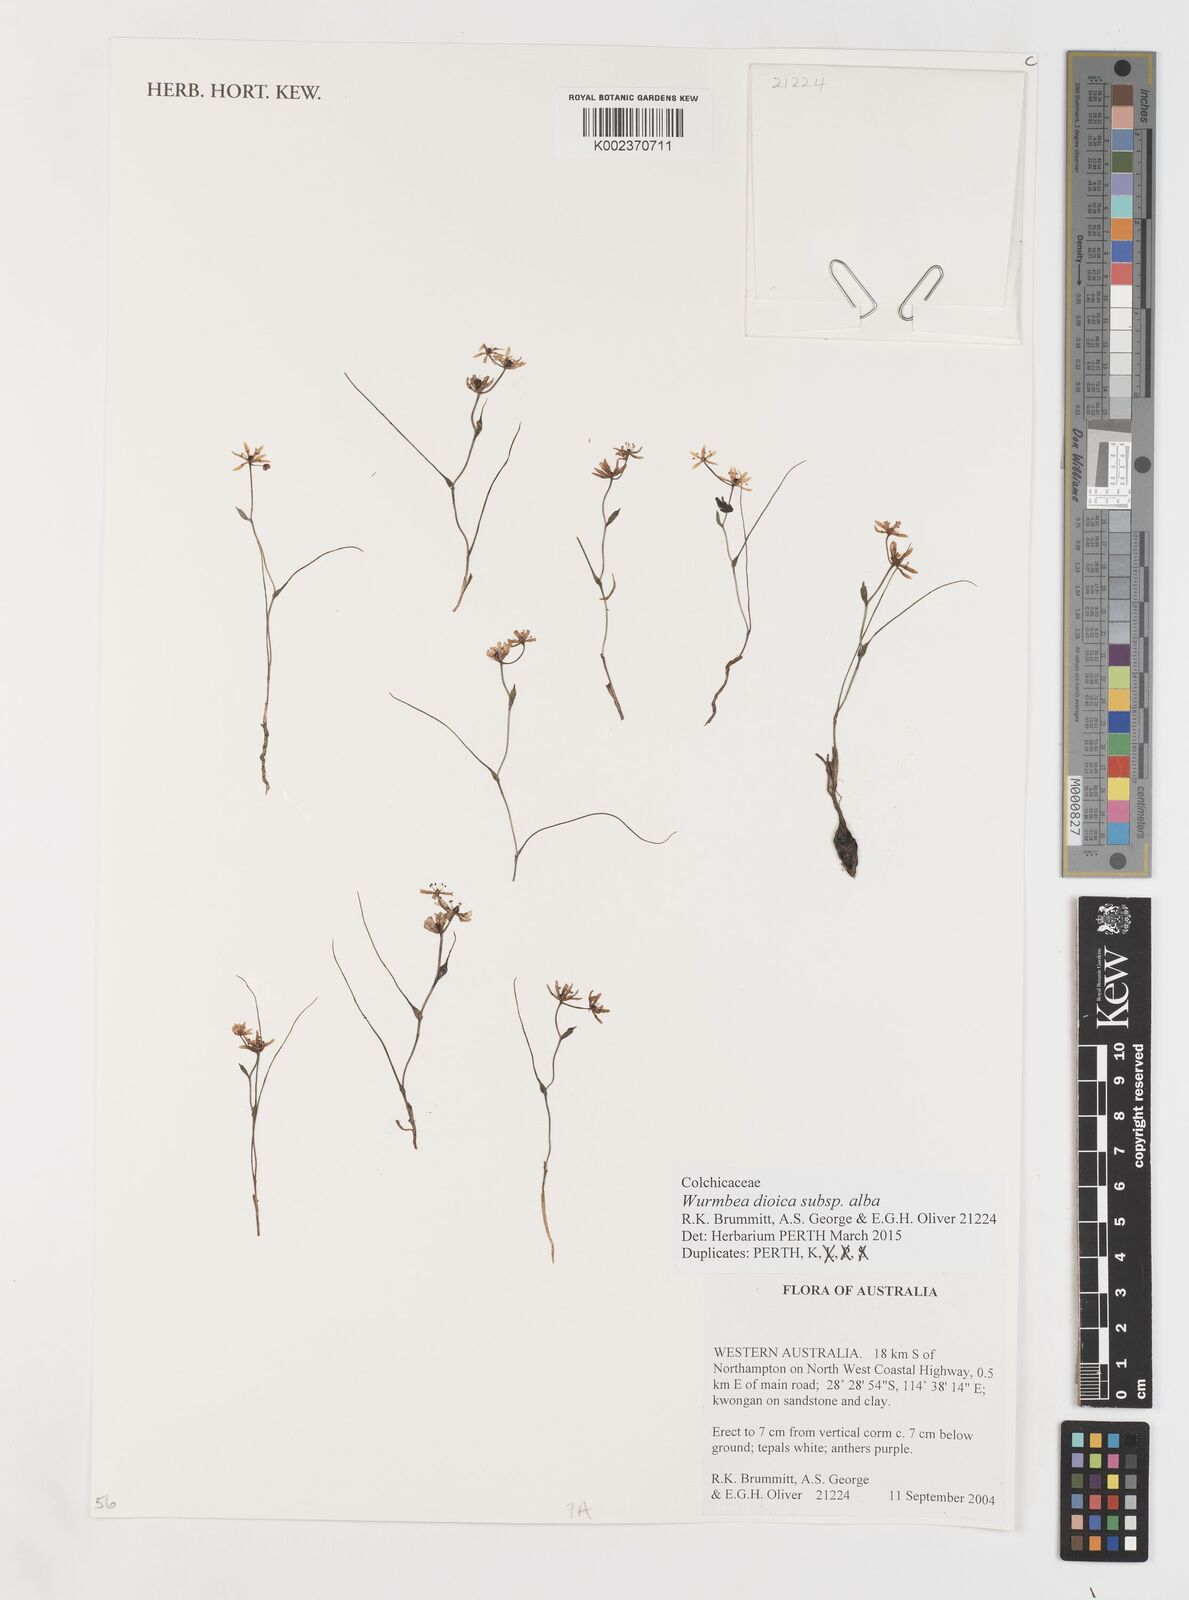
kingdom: Plantae
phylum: Tracheophyta
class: Liliopsida
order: Liliales
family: Colchicaceae
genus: Wurmbea
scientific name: Wurmbea dioica
